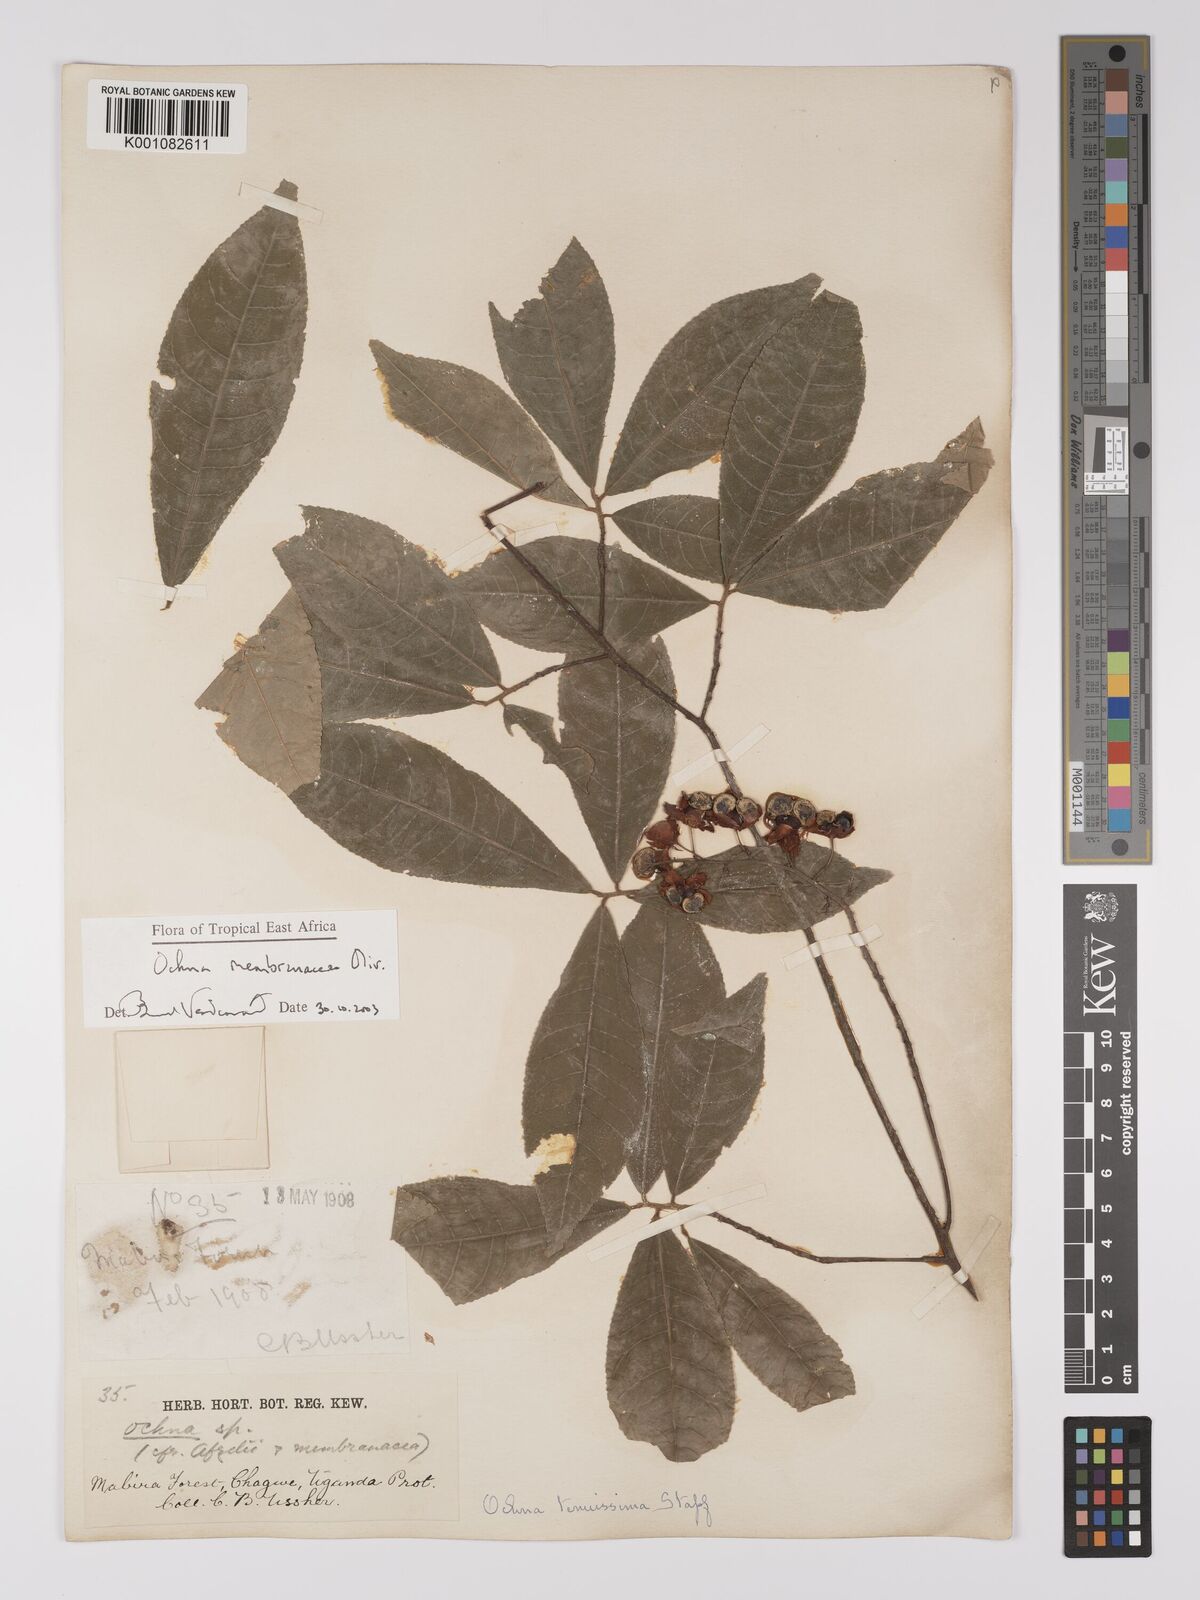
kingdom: Plantae
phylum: Tracheophyta
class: Magnoliopsida
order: Malpighiales
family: Ochnaceae
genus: Ochna
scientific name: Ochna membranacea
